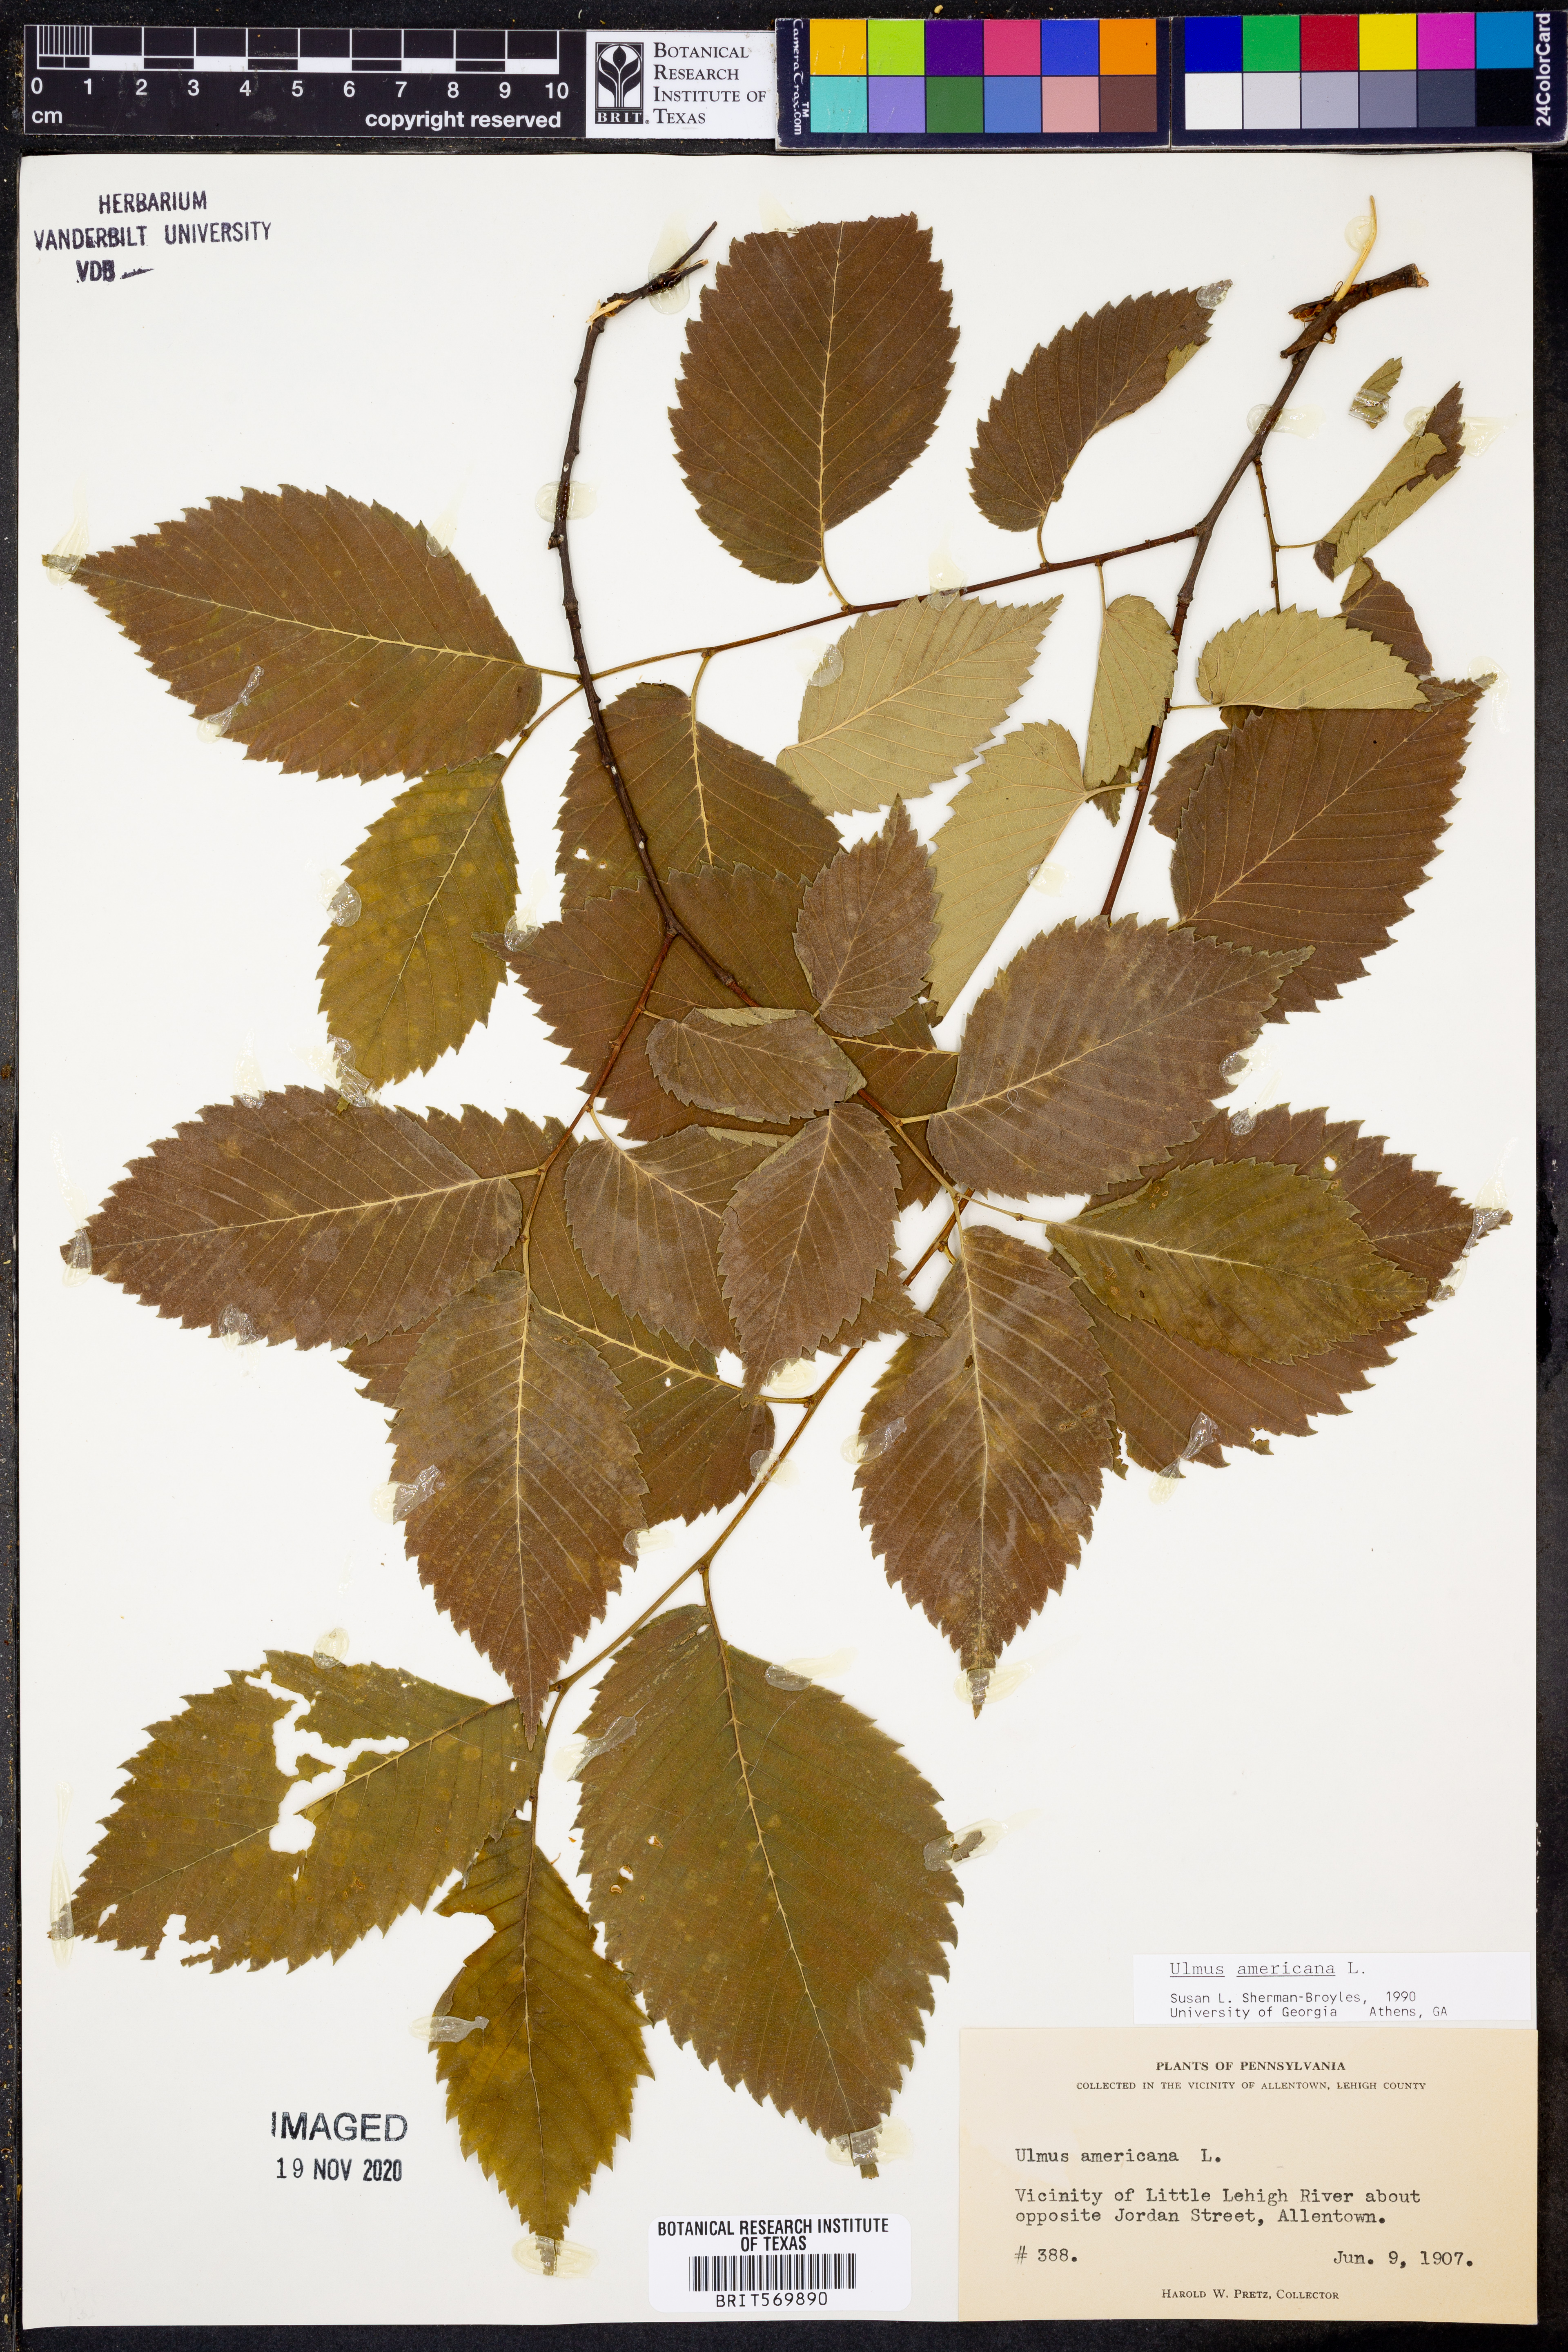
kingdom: Plantae
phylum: Tracheophyta
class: Magnoliopsida
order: Rosales
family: Ulmaceae
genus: Ulmus
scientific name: Ulmus americana
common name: American elm
